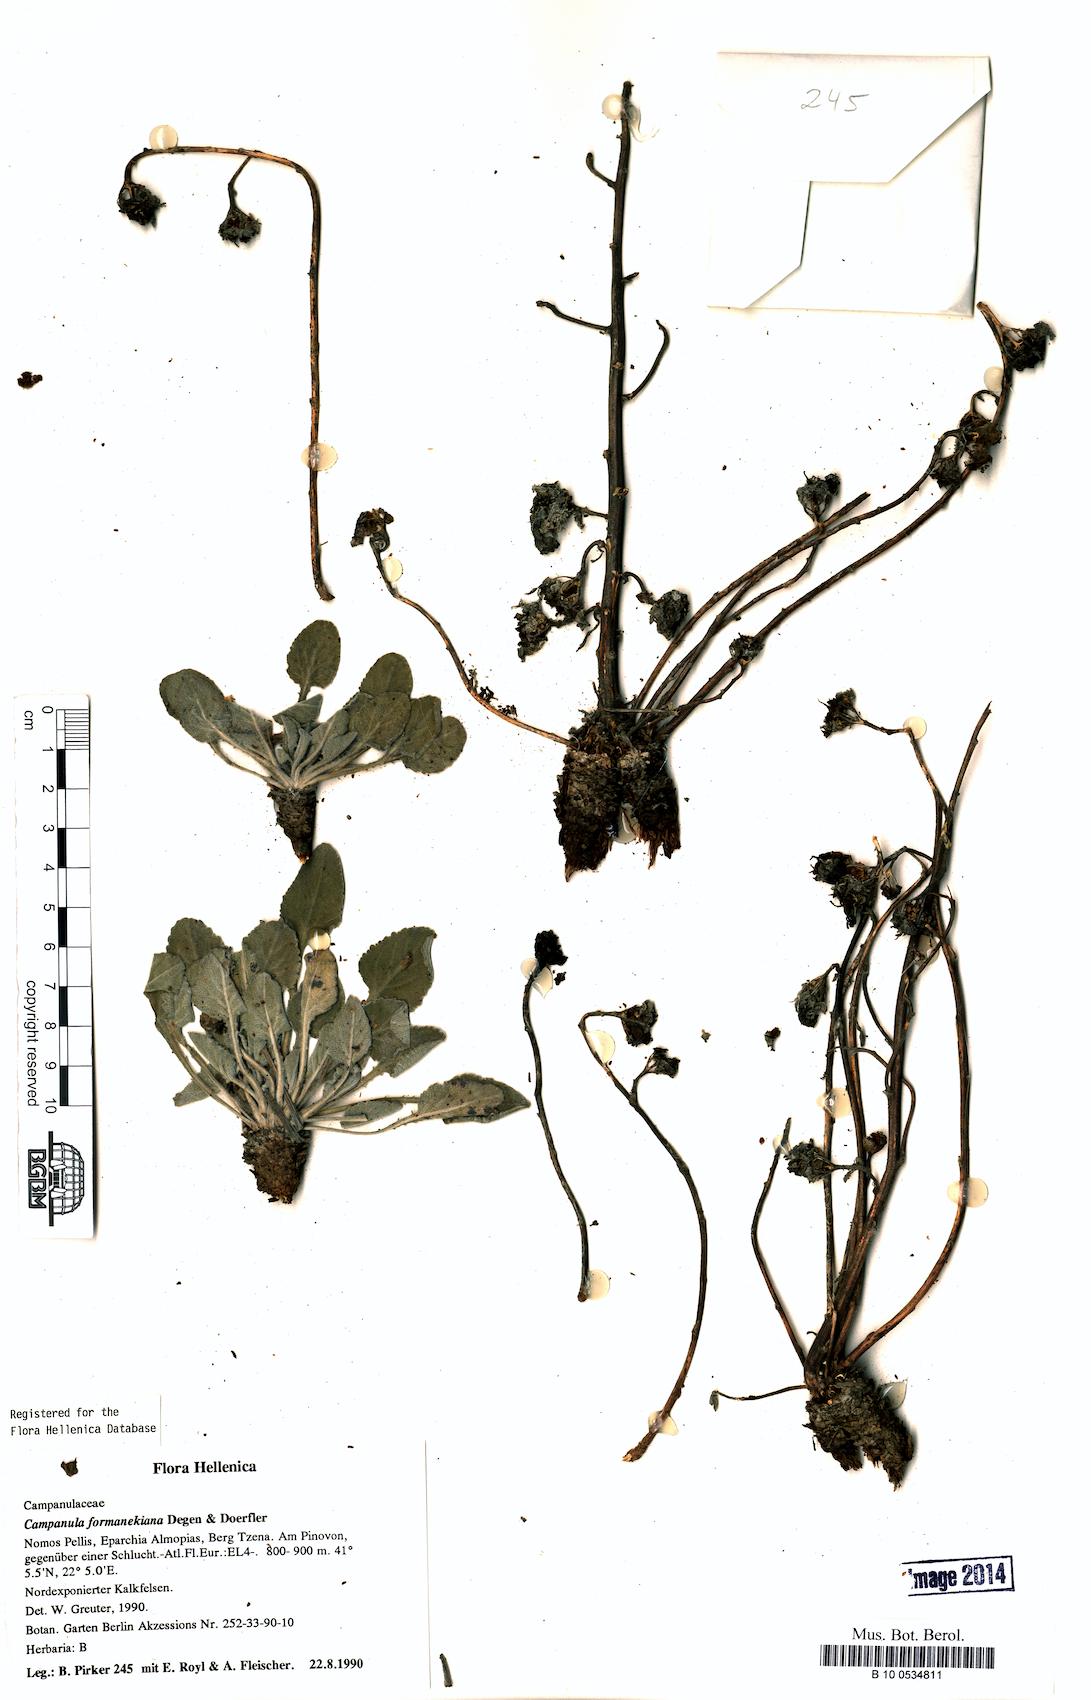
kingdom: Plantae
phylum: Tracheophyta
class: Magnoliopsida
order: Asterales
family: Campanulaceae
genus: Campanula
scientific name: Campanula formanekiana
